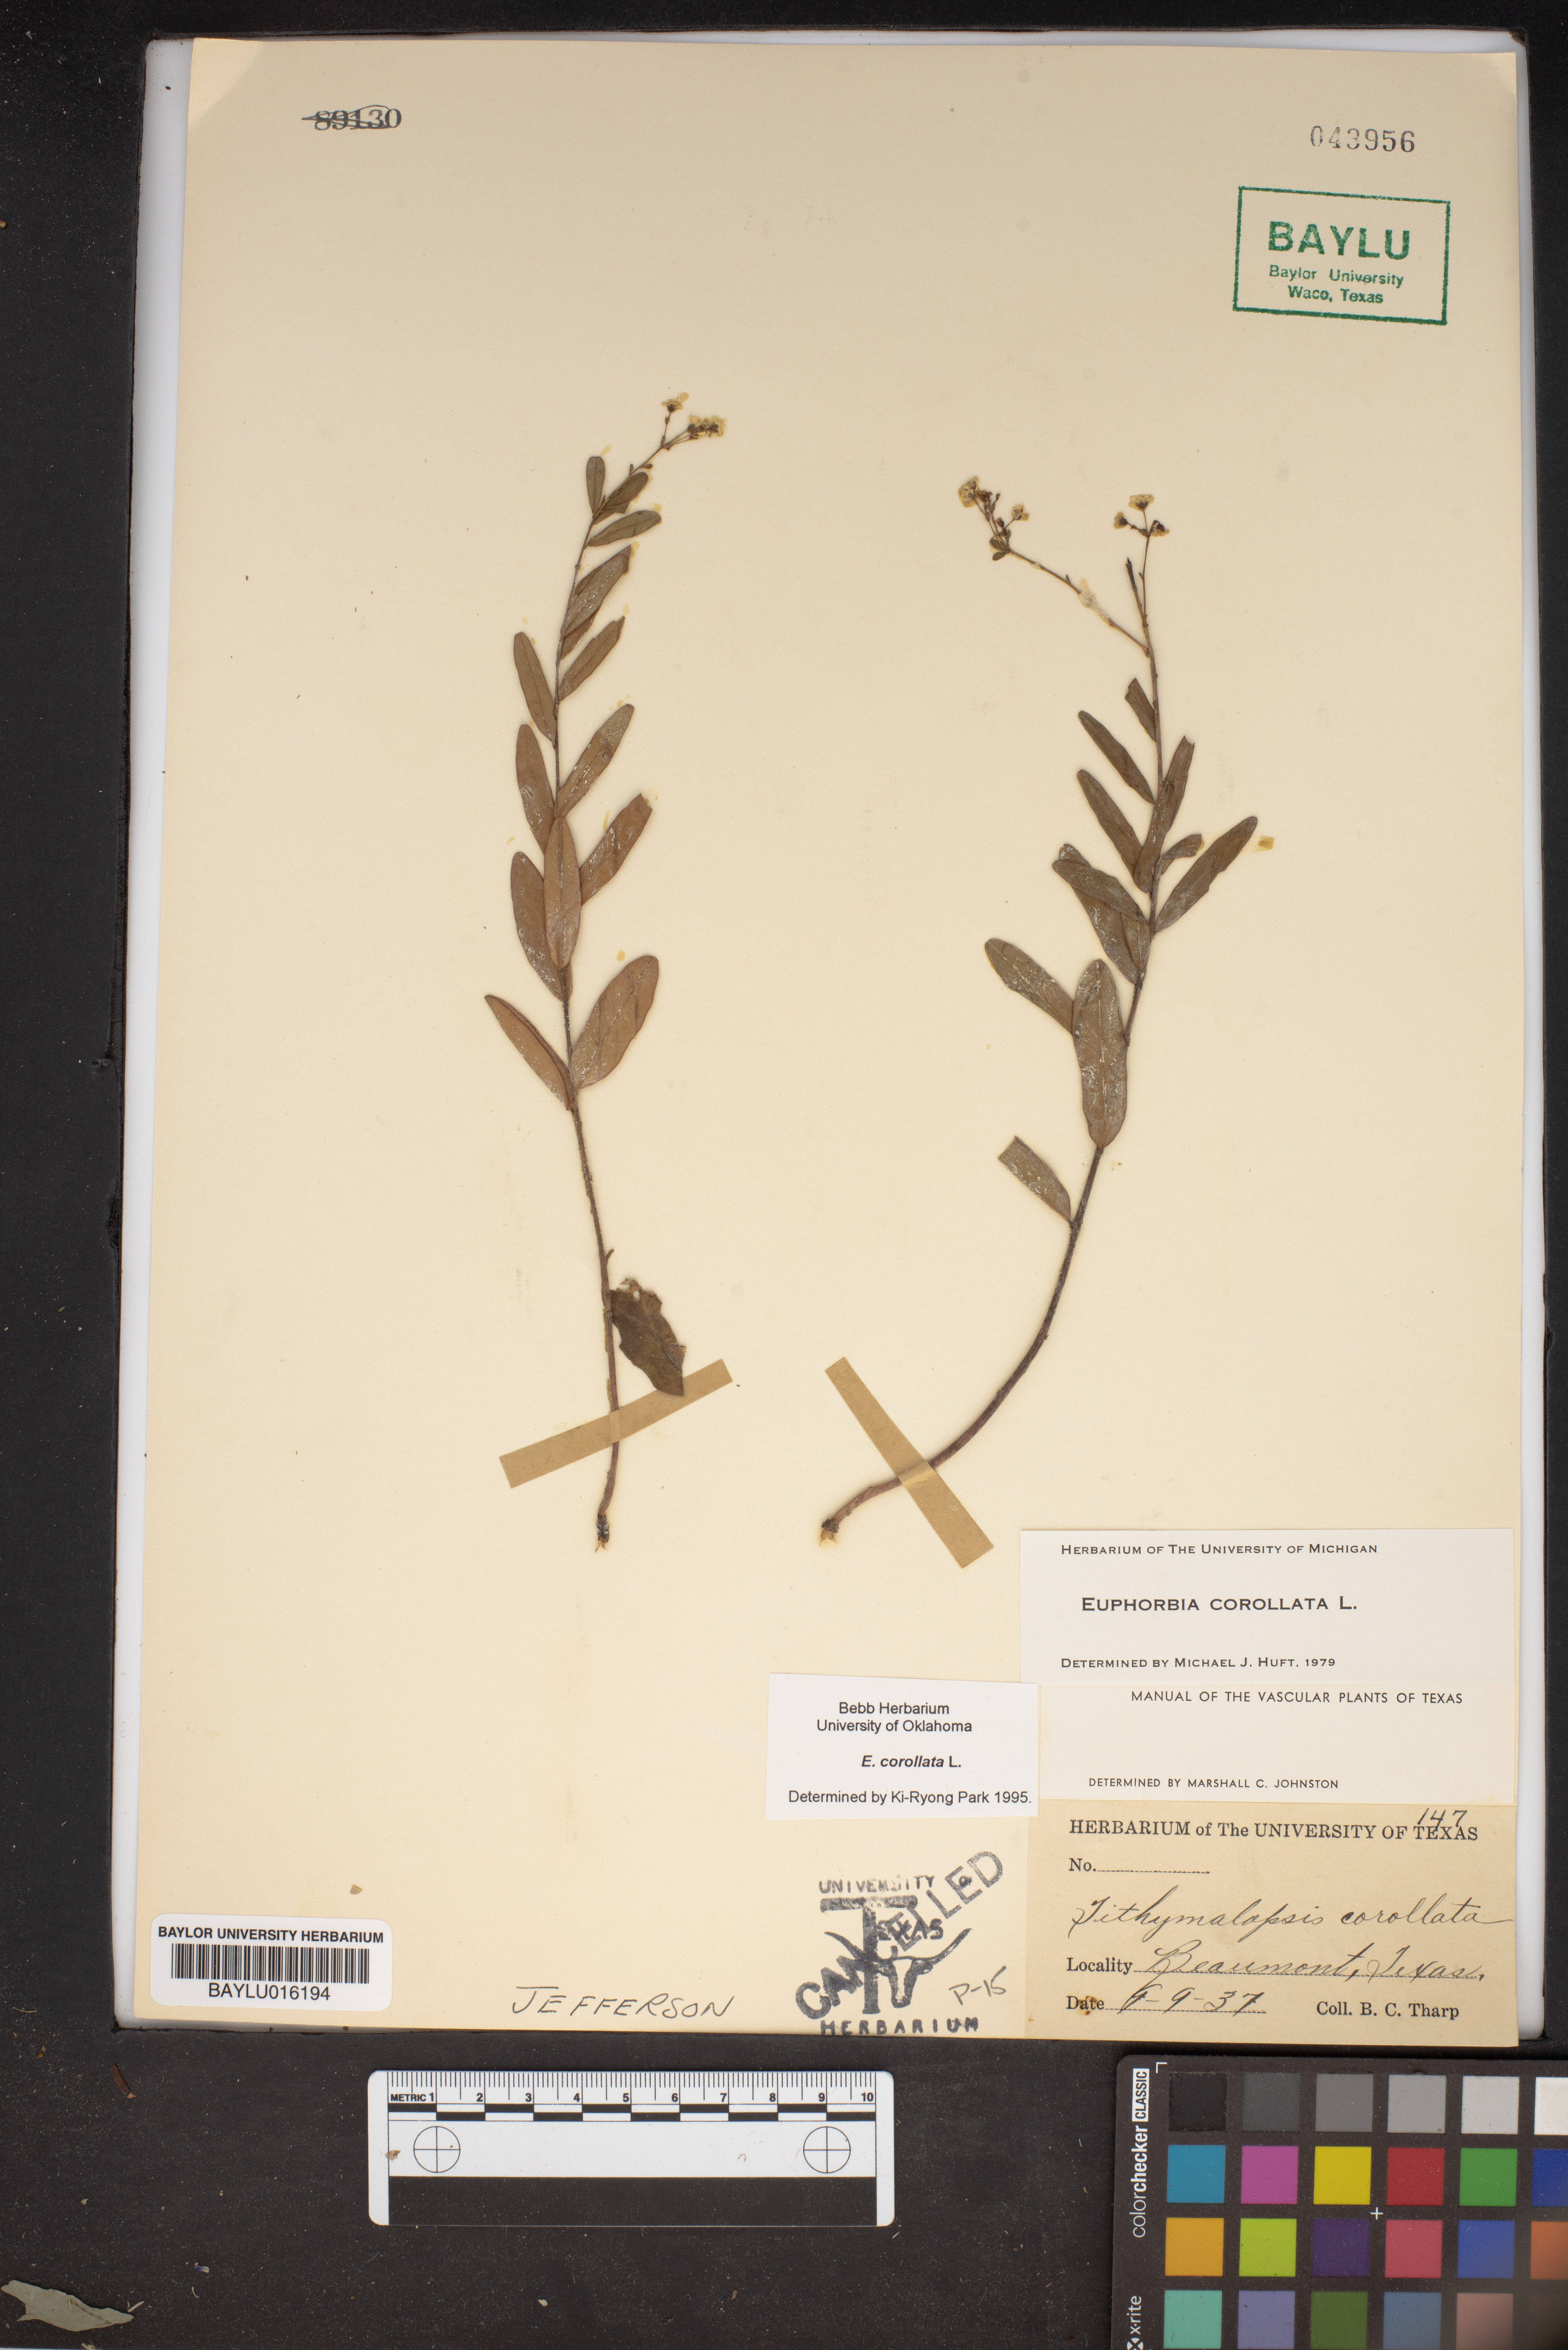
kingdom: Plantae
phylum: Tracheophyta
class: Magnoliopsida
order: Malpighiales
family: Euphorbiaceae
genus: Euphorbia
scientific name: Euphorbia corollata
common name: Flowering spurge
